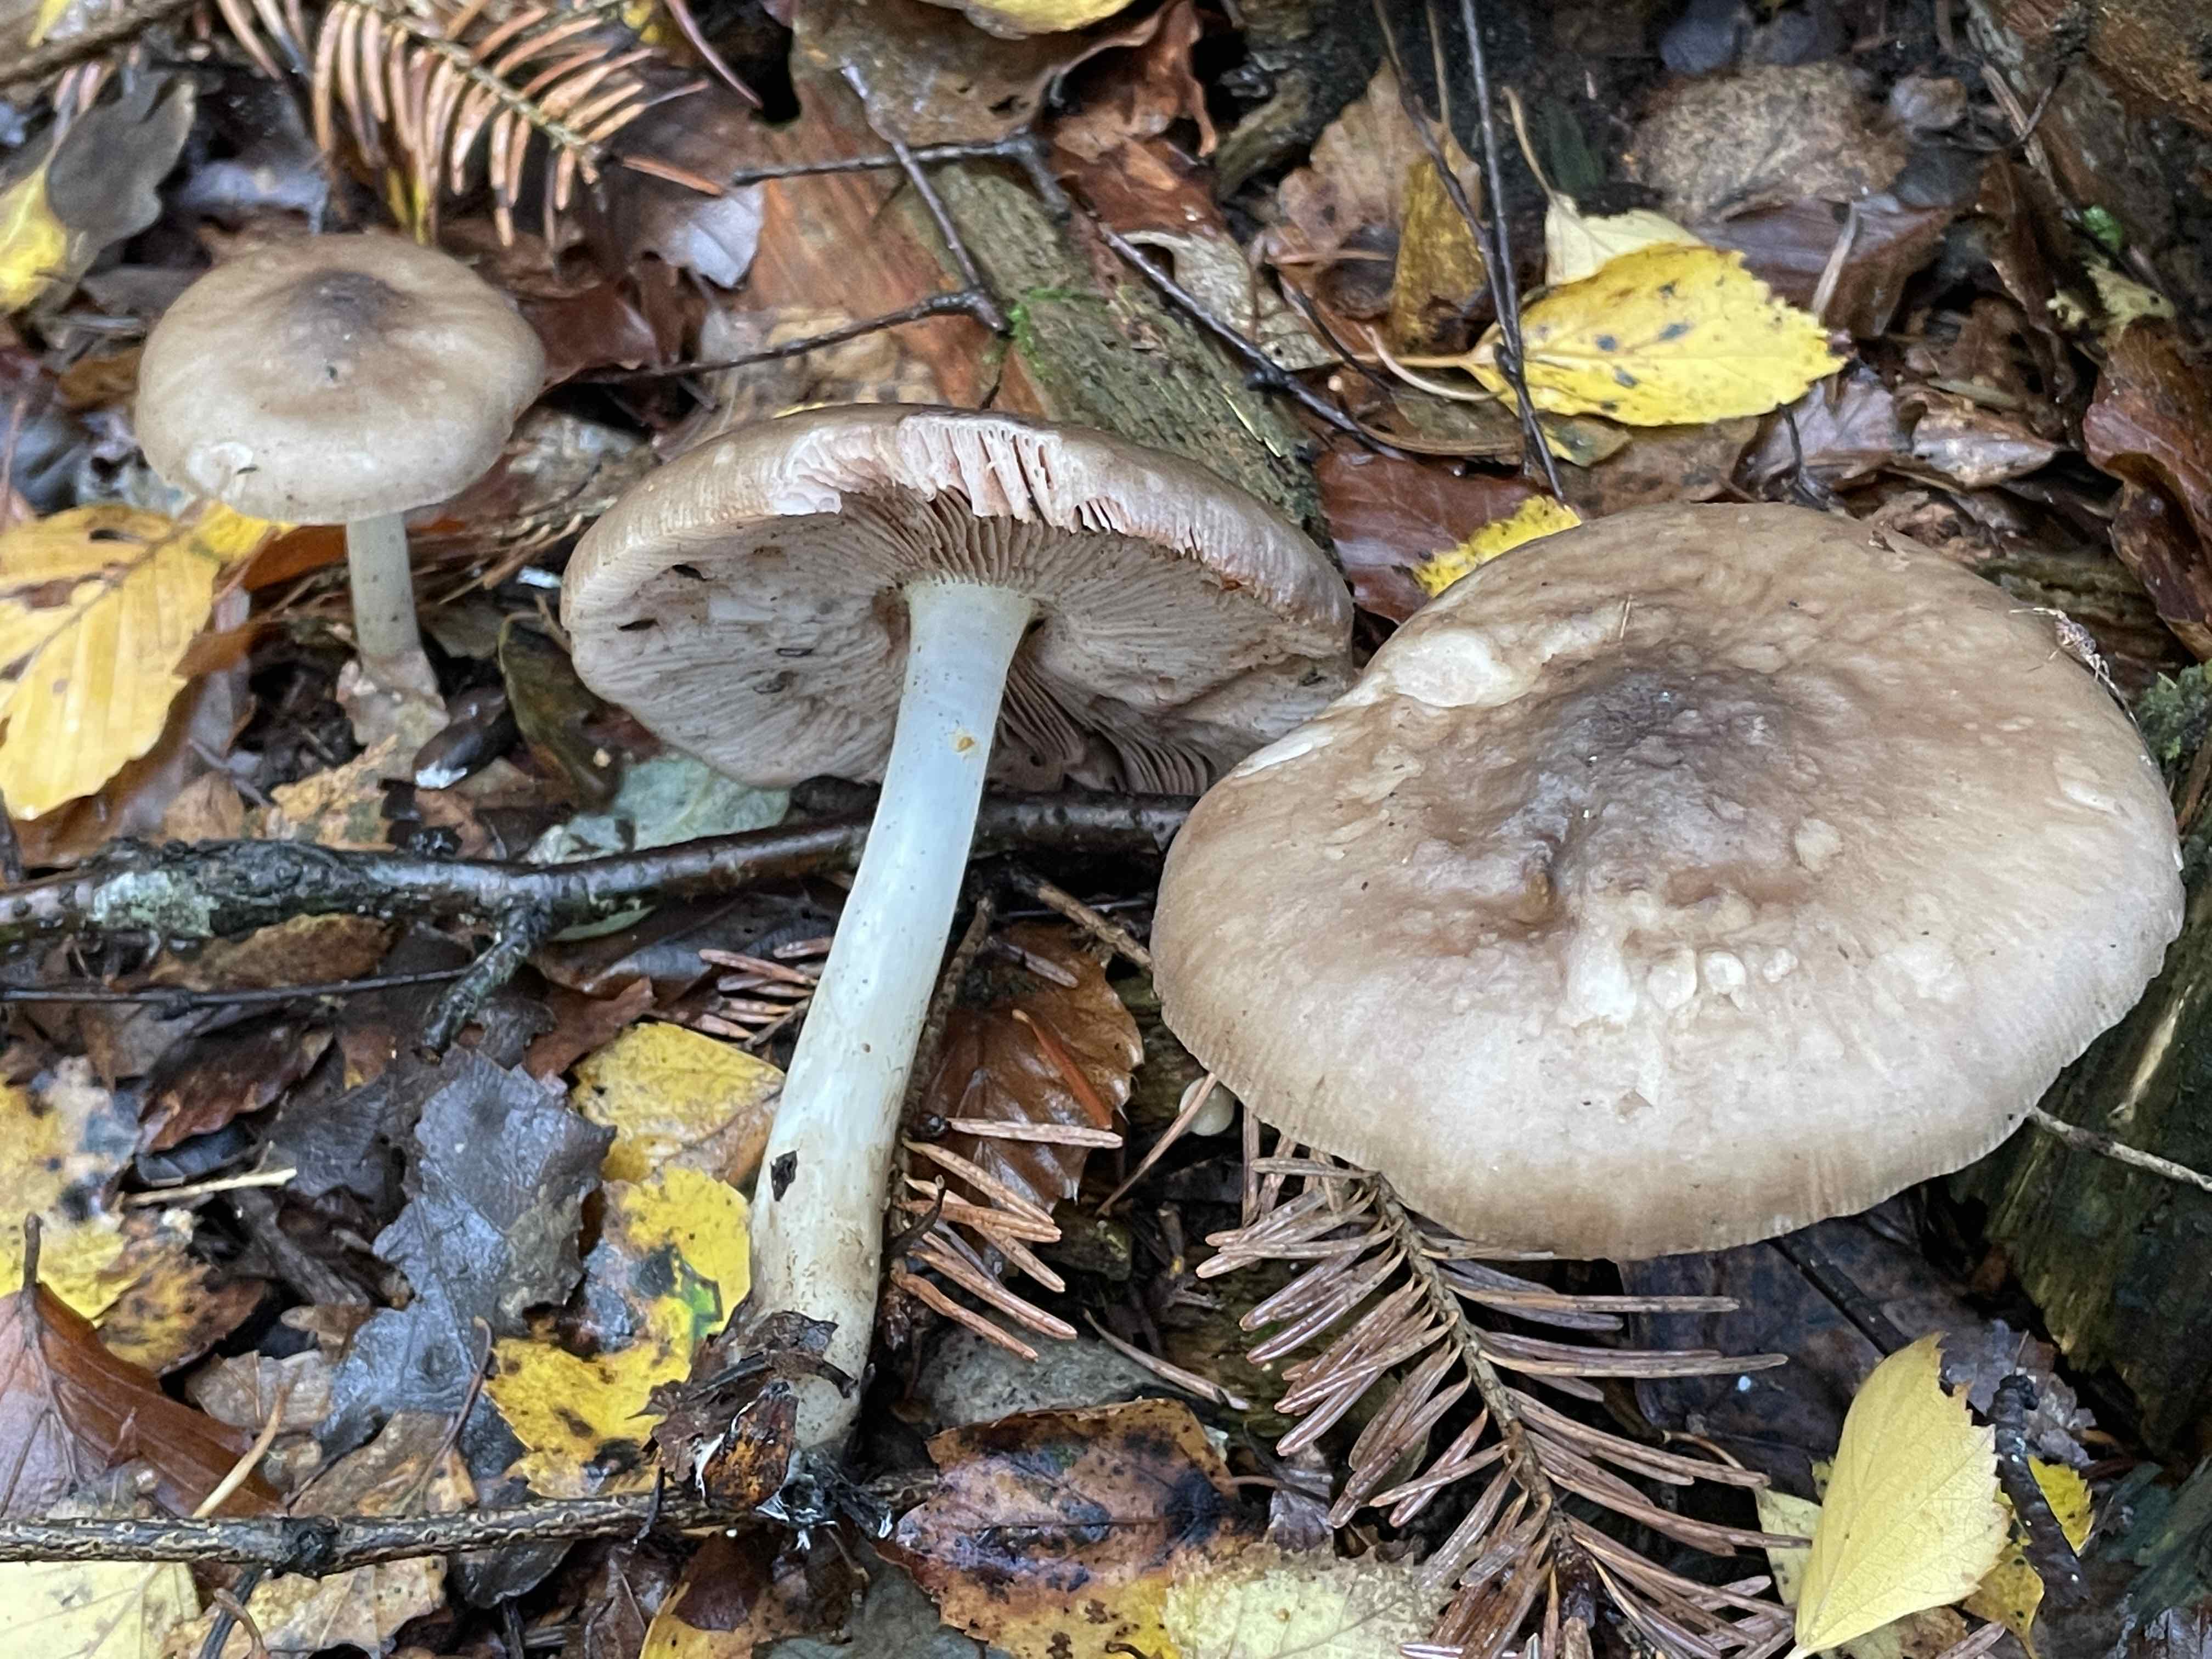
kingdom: Fungi
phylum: Basidiomycota
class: Agaricomycetes
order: Agaricales
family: Pluteaceae
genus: Pluteus
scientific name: Pluteus cervinus
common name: sodfarvet skærmhat
